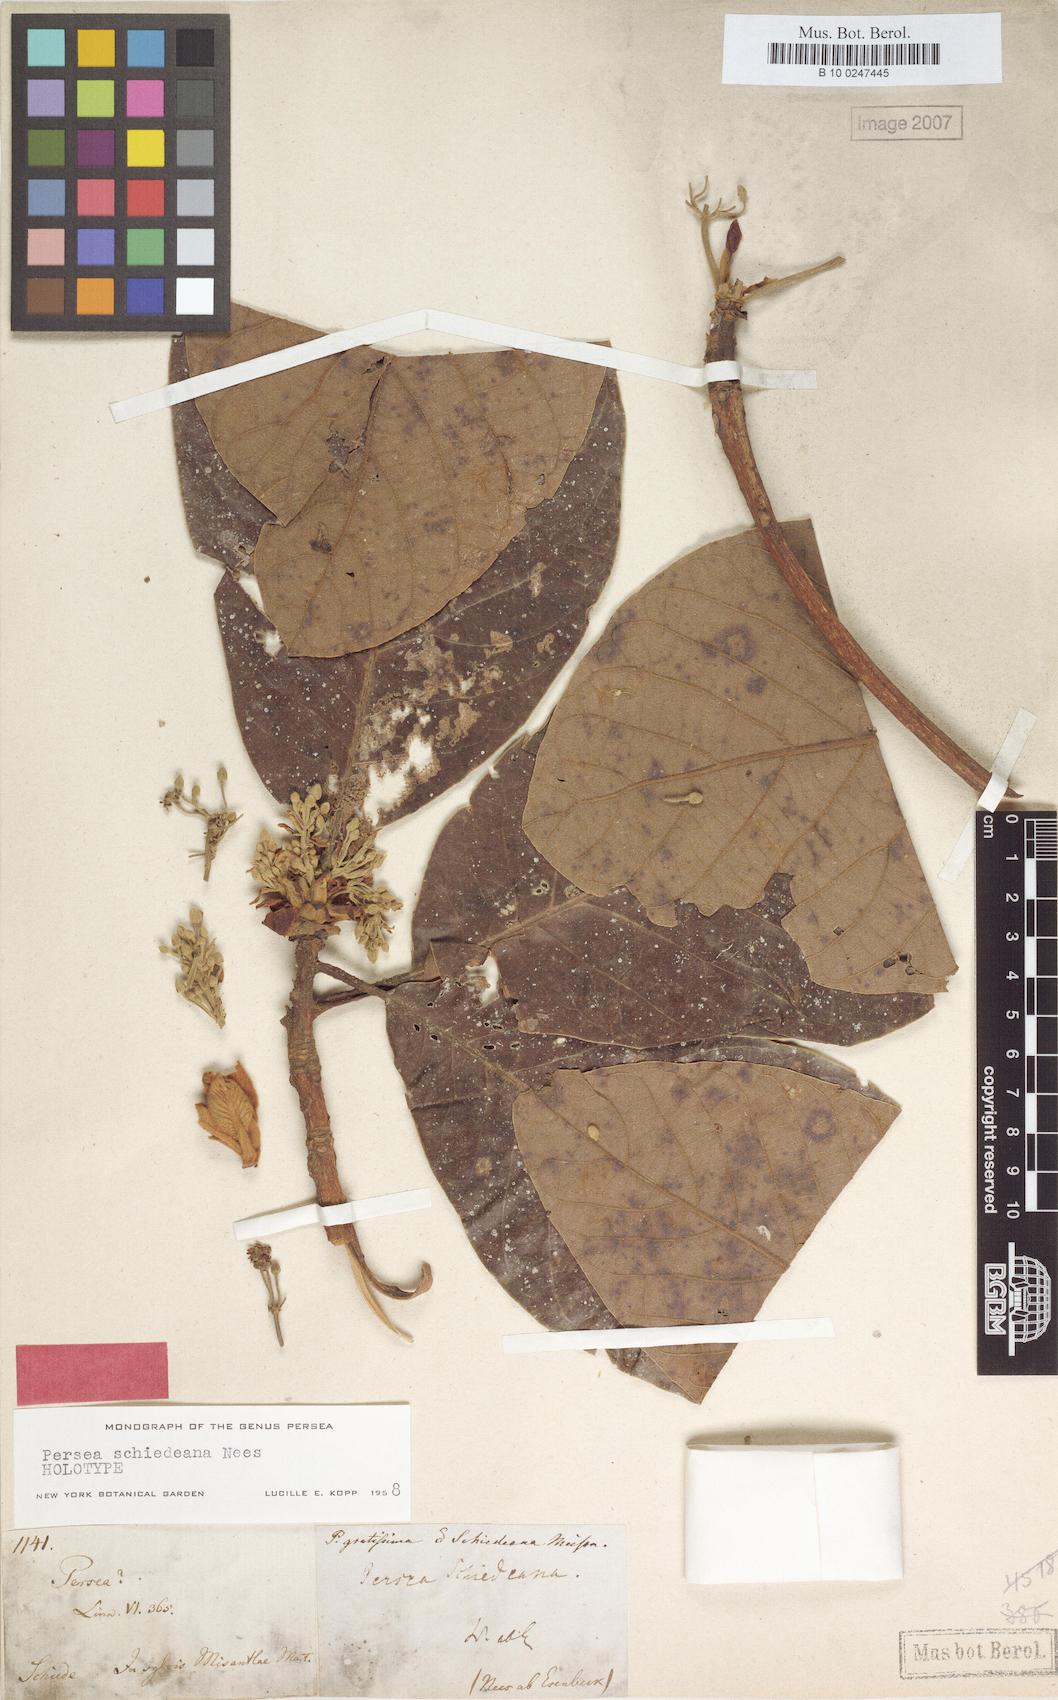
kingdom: Plantae
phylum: Tracheophyta
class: Magnoliopsida
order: Laurales
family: Lauraceae
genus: Persea
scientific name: Persea schiedeana
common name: Coyo avocado
